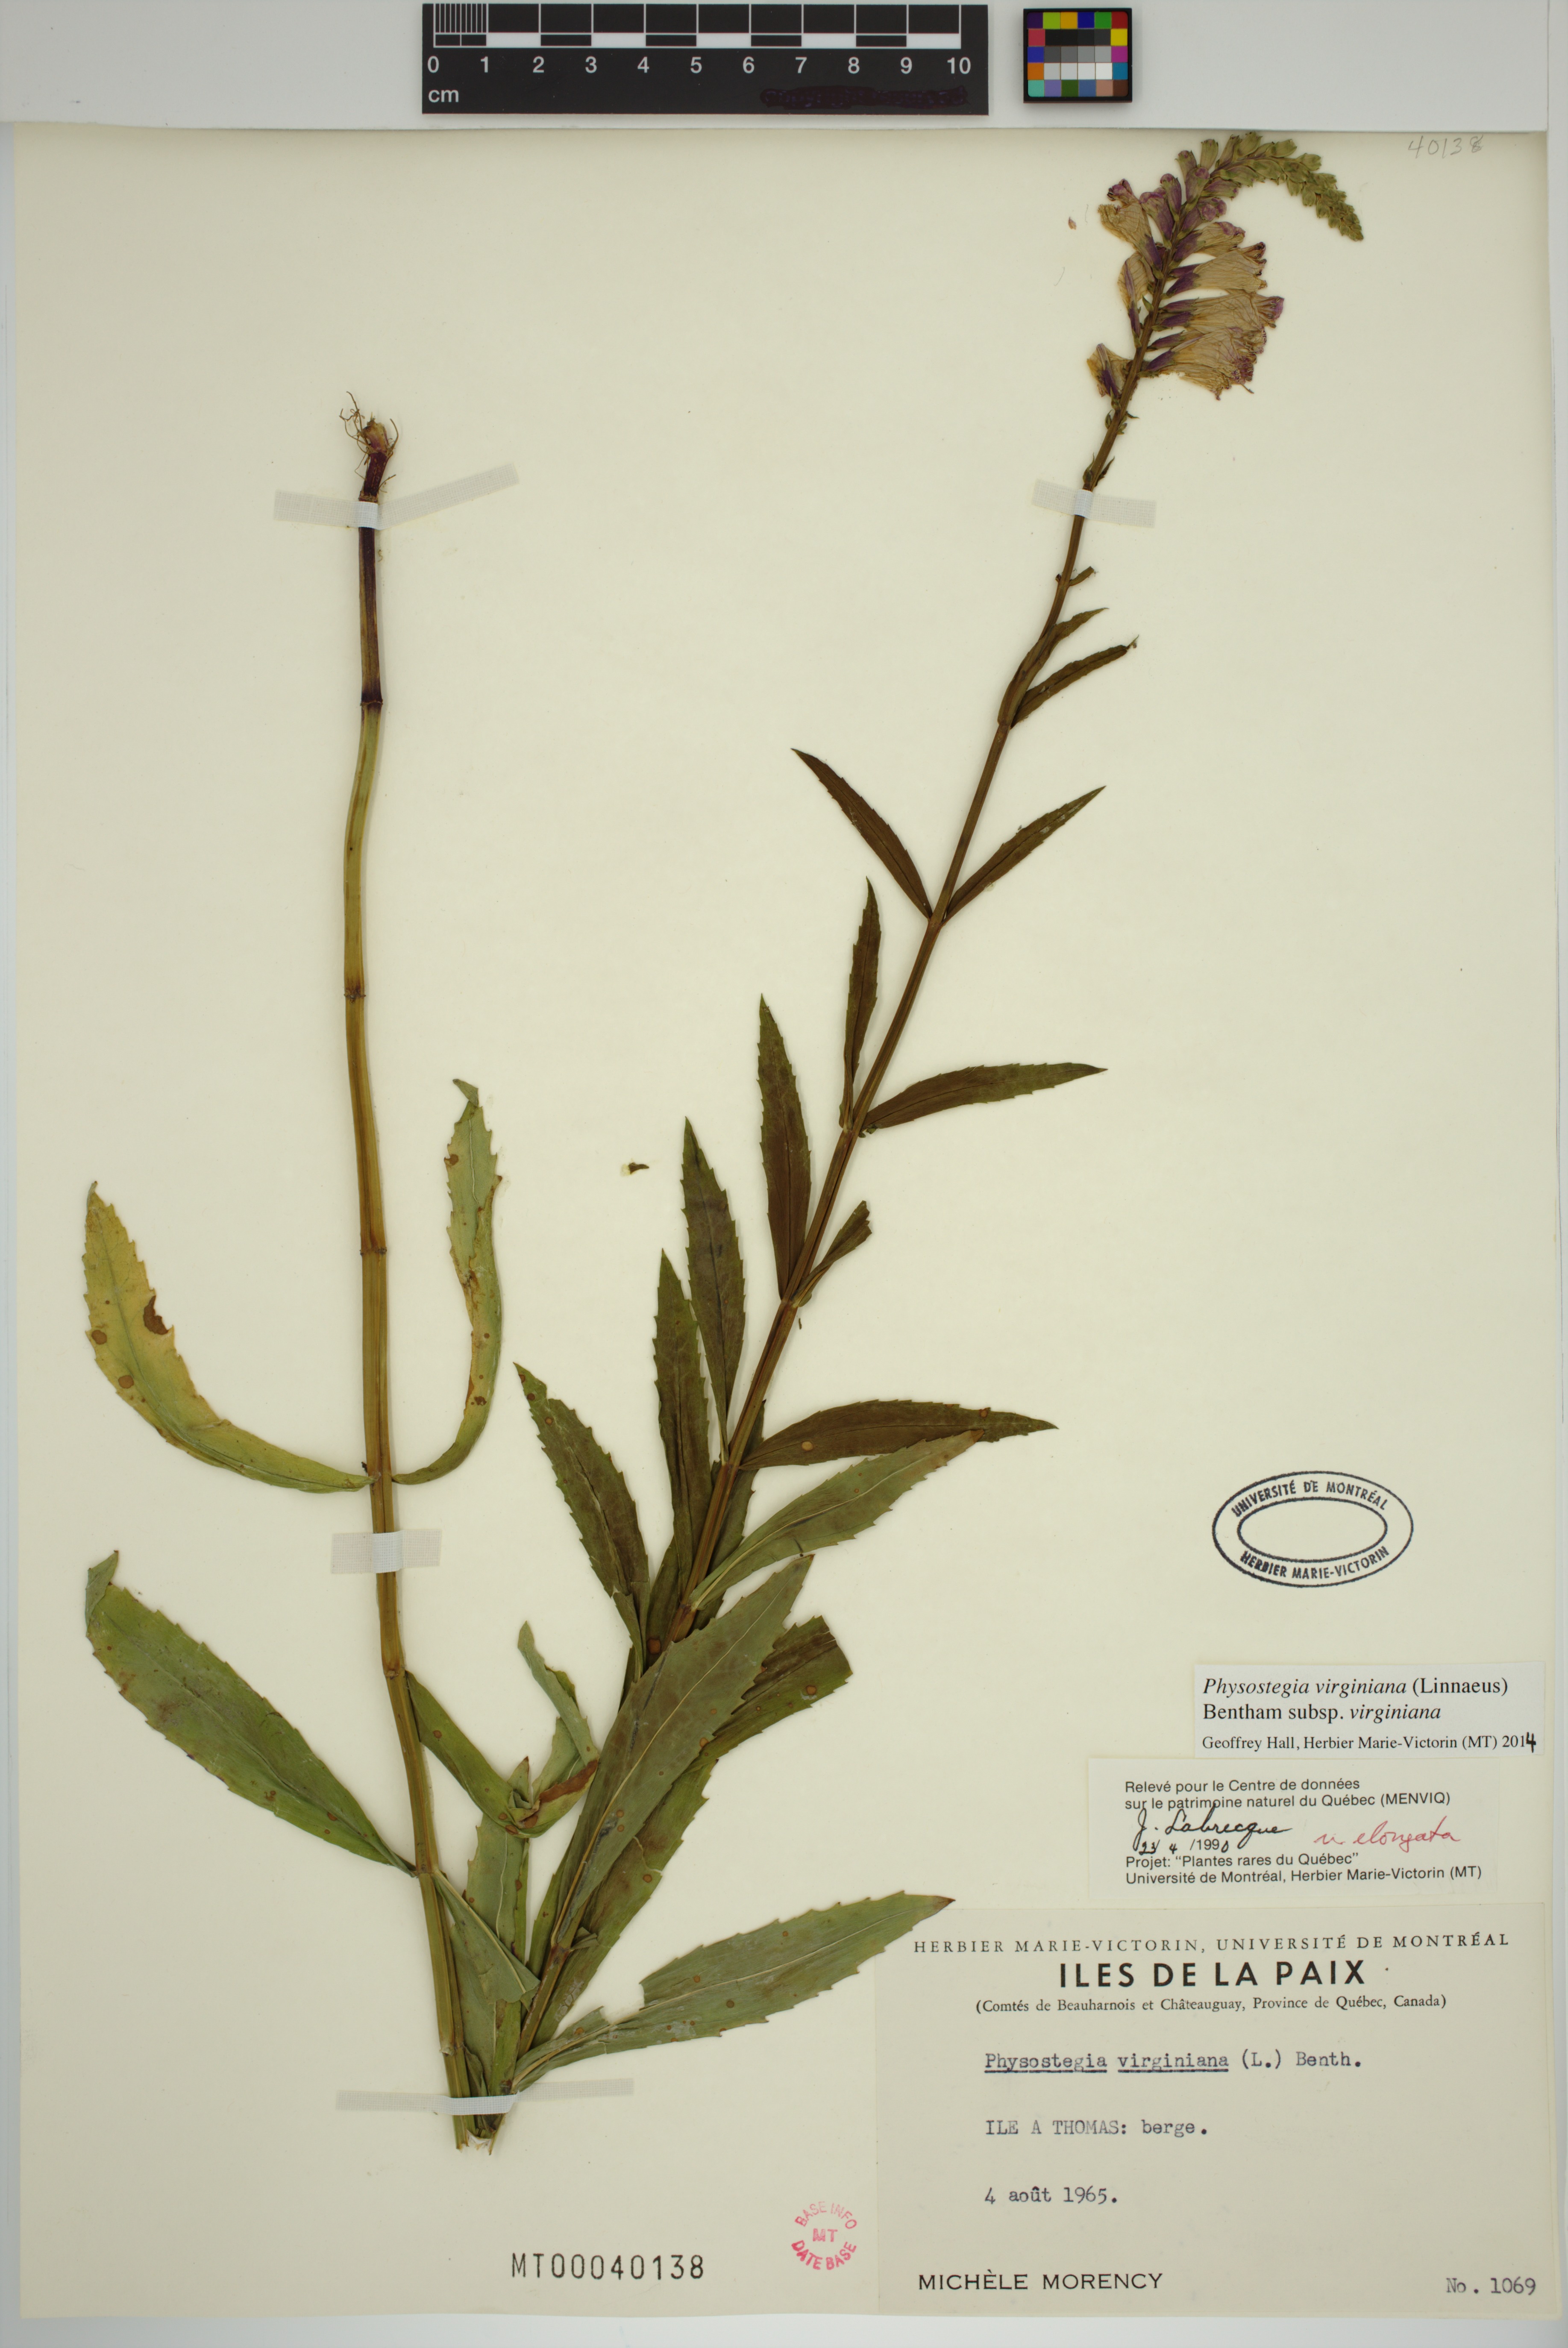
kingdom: Plantae
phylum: Tracheophyta
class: Magnoliopsida
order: Lamiales
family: Lamiaceae
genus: Physostegia
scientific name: Physostegia virginiana
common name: Obedient-plant
